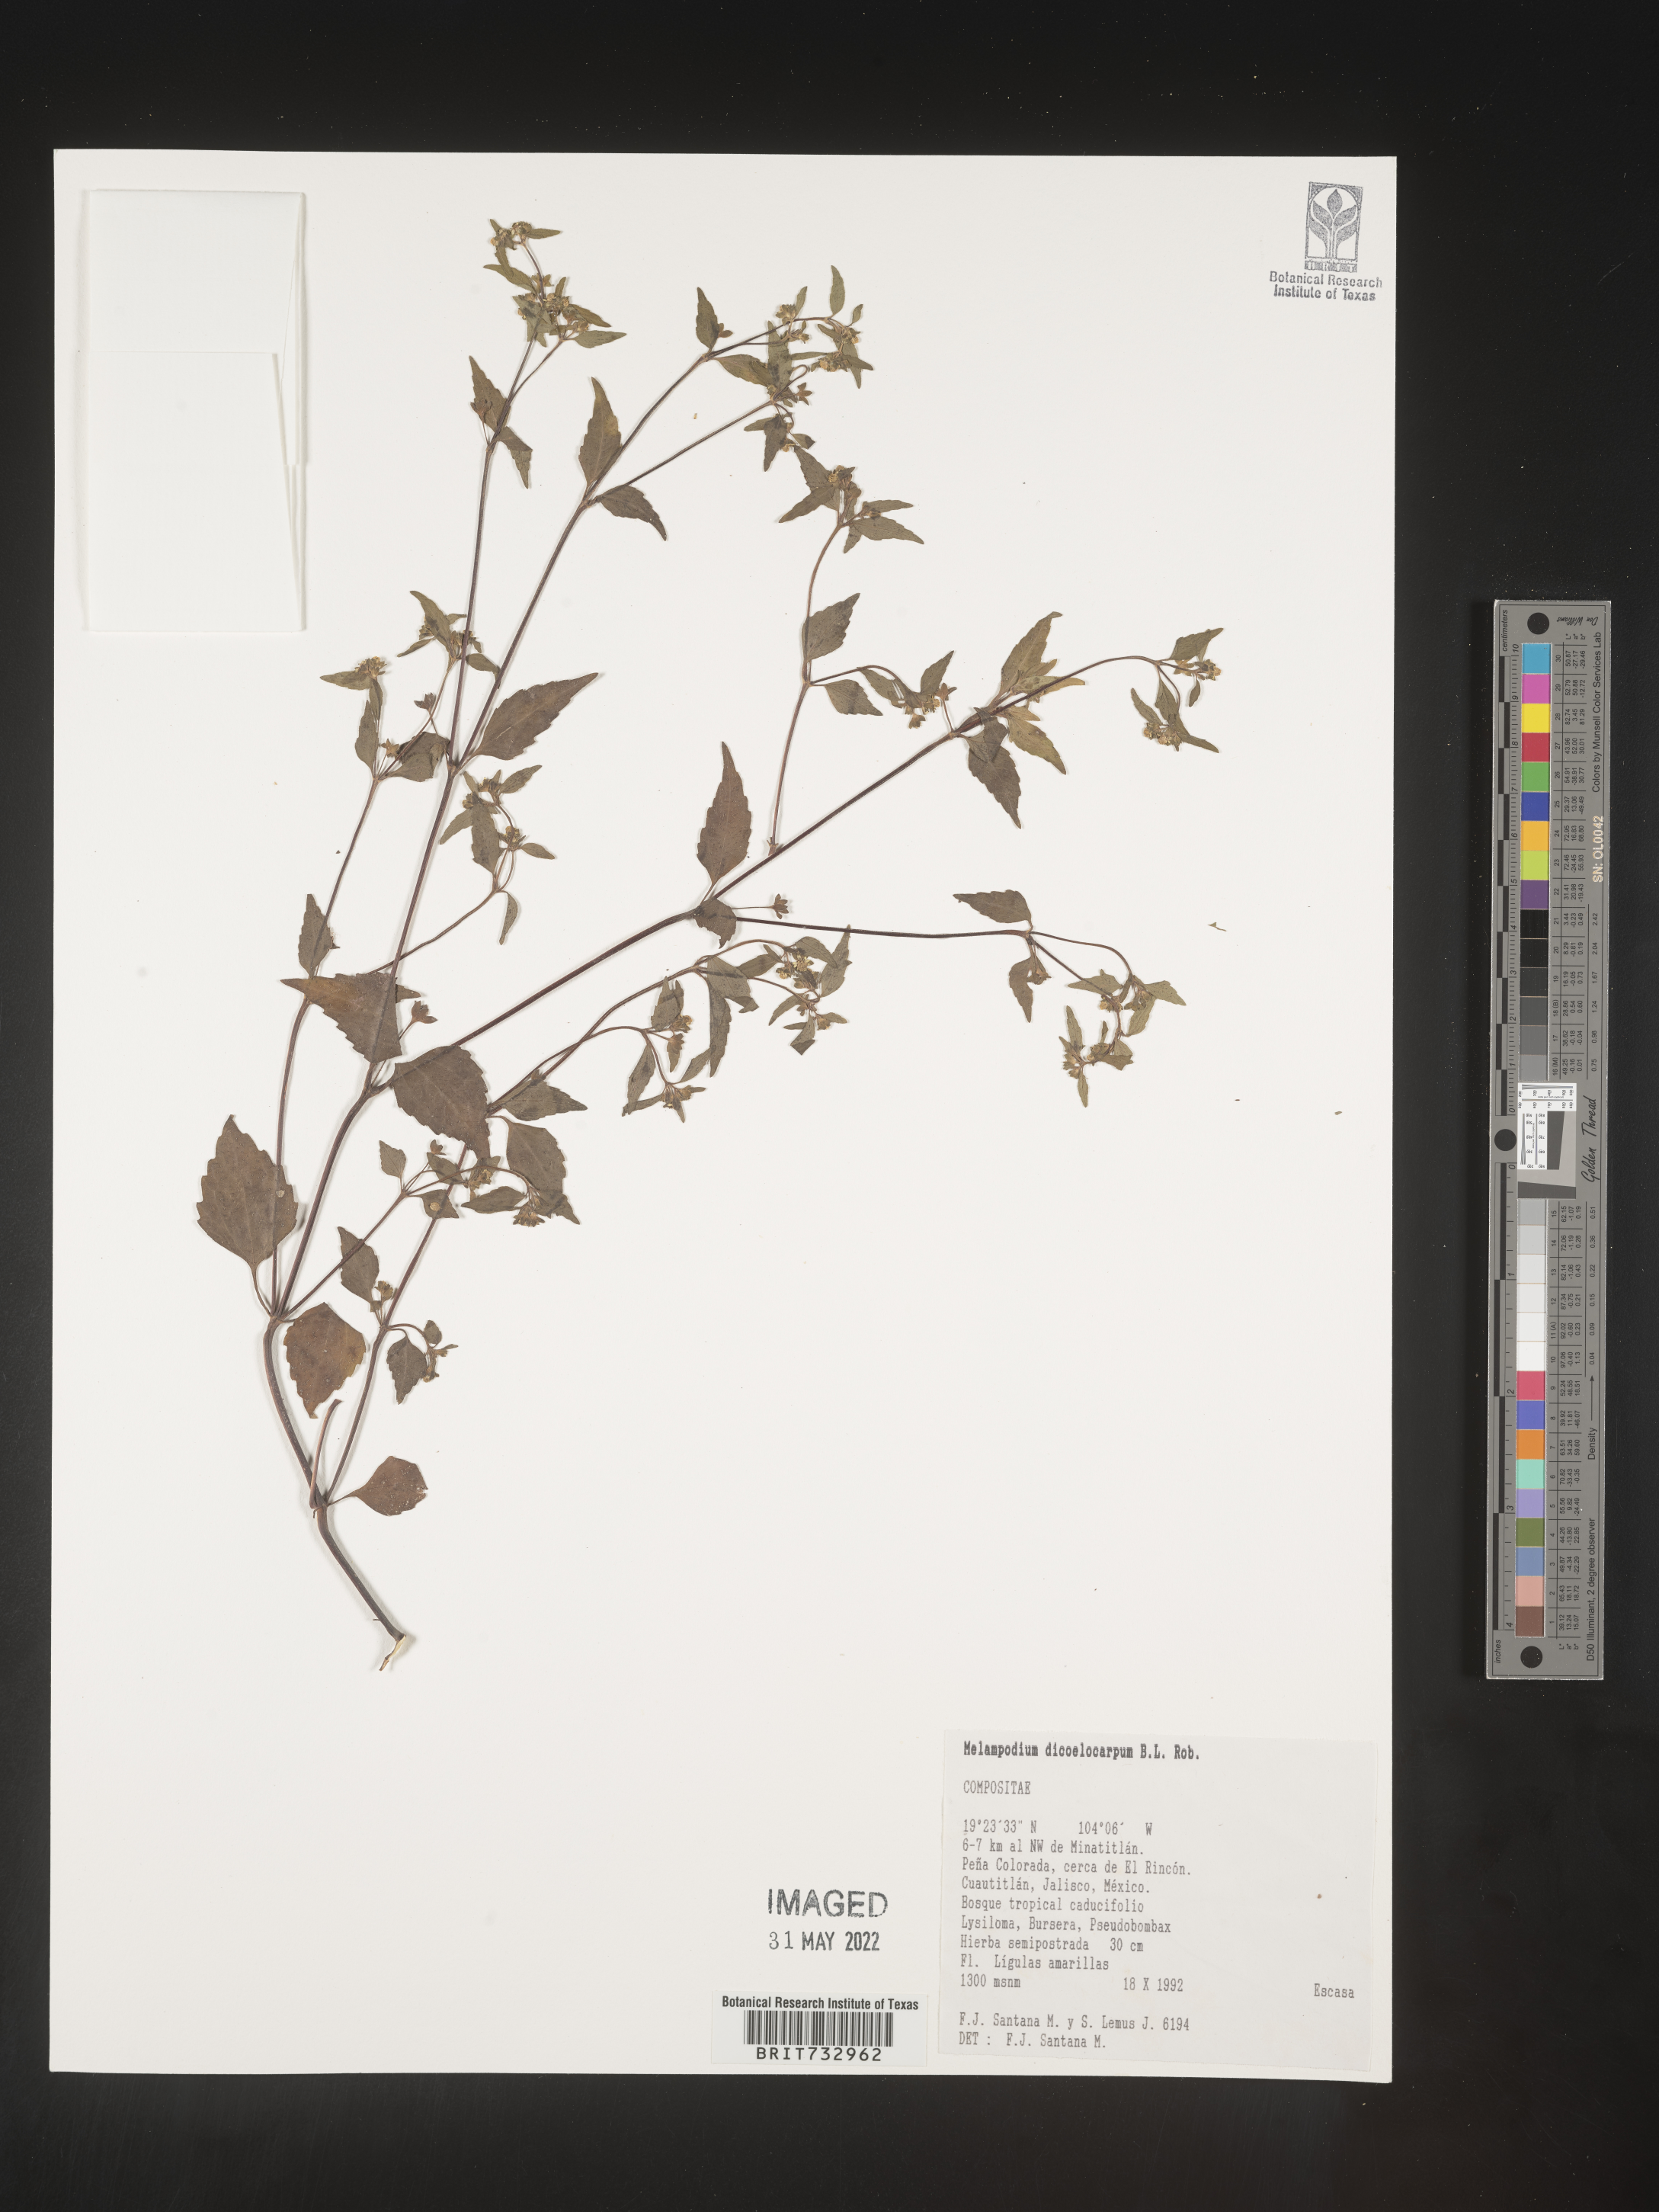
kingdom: Plantae
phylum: Tracheophyta
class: Magnoliopsida
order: Asterales
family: Asteraceae
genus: Melampodium
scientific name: Melampodium
